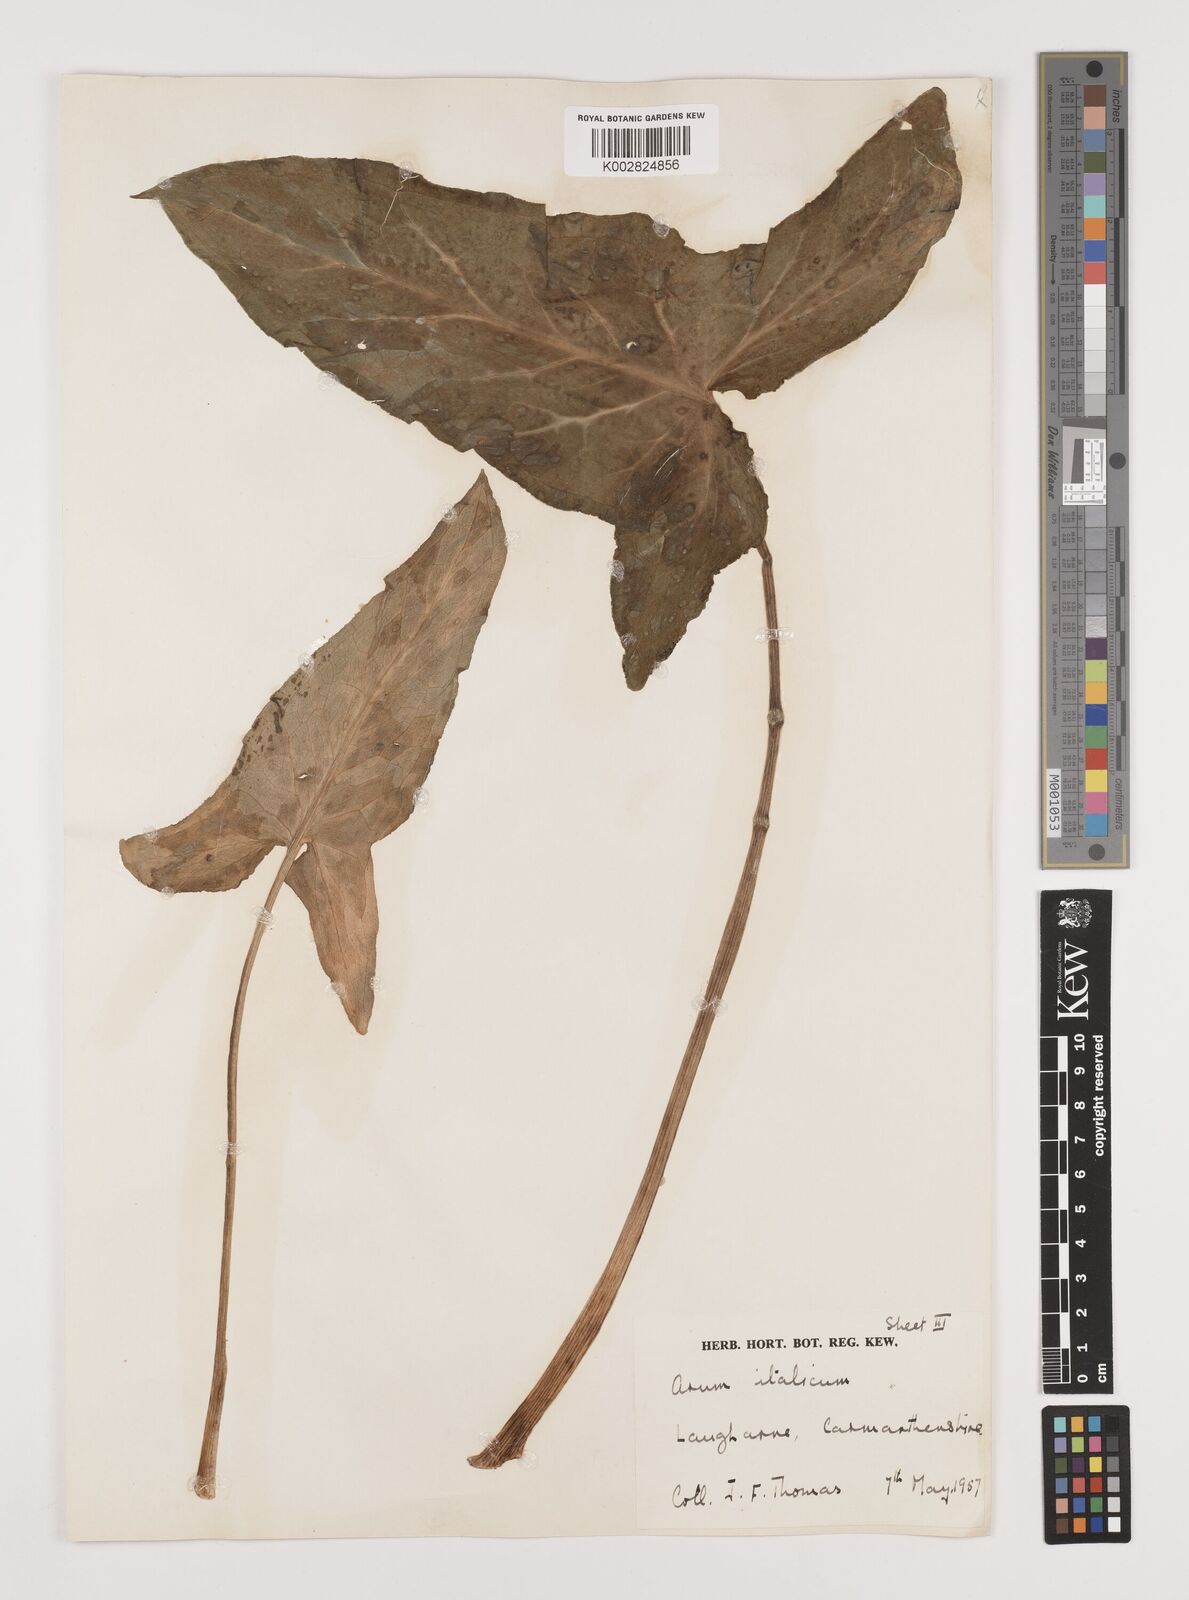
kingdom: Plantae
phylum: Tracheophyta
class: Liliopsida
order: Alismatales
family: Araceae
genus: Arum
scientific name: Arum italicum
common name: Italian lords-and-ladies
